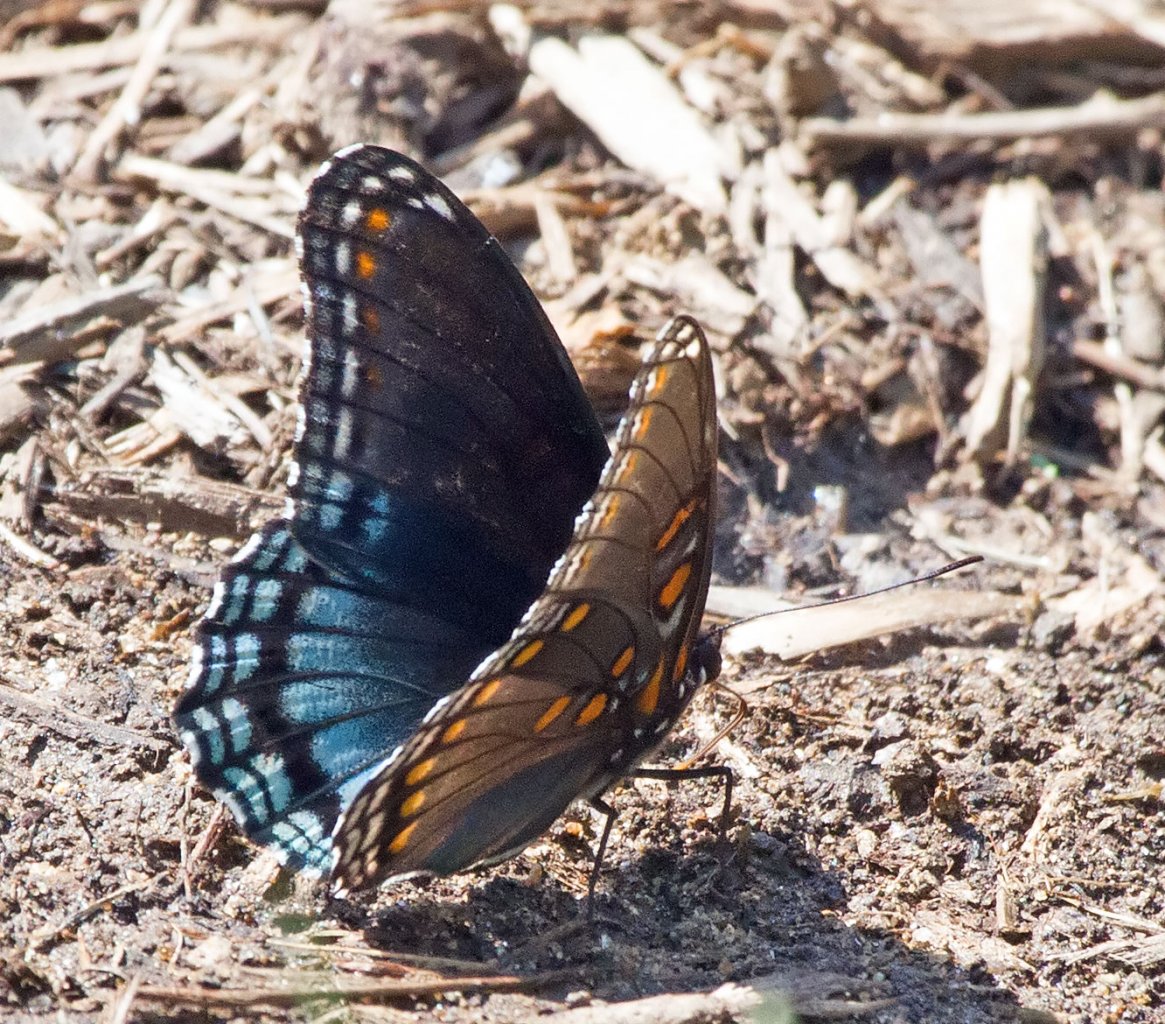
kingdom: Animalia
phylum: Arthropoda
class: Insecta
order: Lepidoptera
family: Nymphalidae
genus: Limenitis
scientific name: Limenitis astyanax
